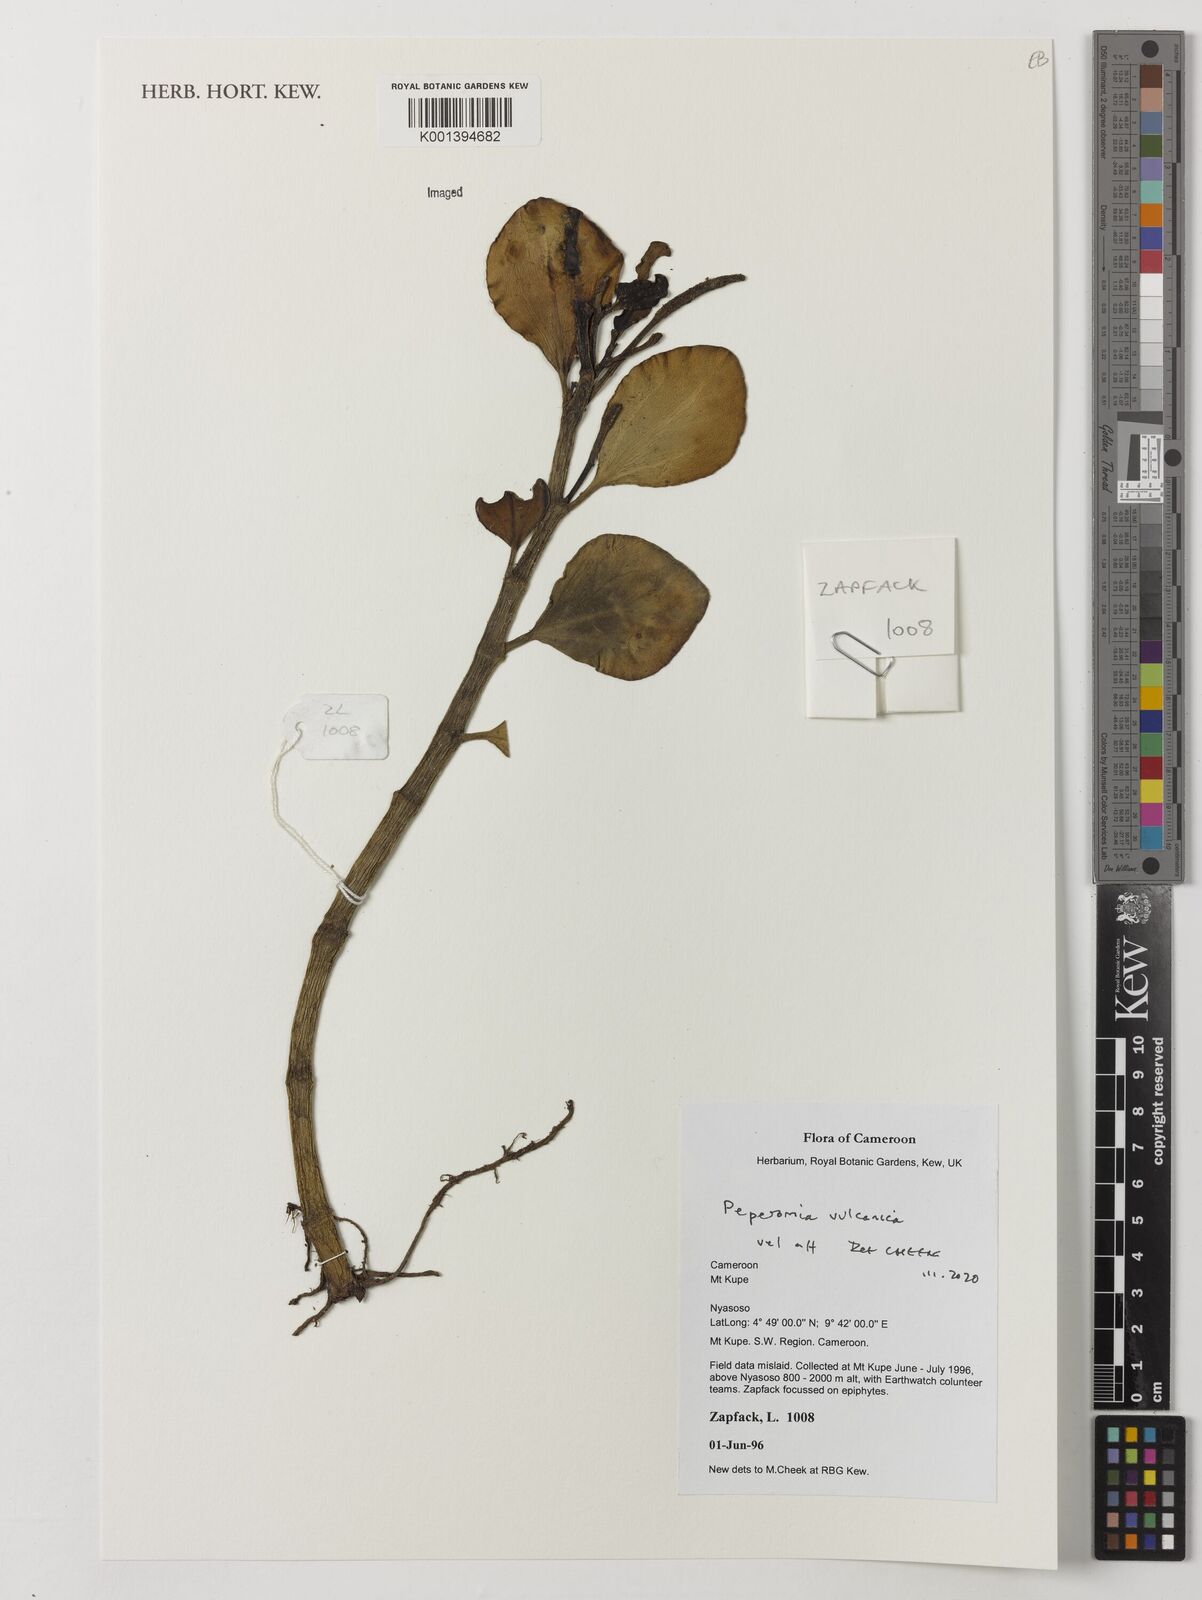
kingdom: Plantae
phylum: Tracheophyta
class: Magnoliopsida
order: Piperales
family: Piperaceae
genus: Peperomia
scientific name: Peperomia vulcanica
